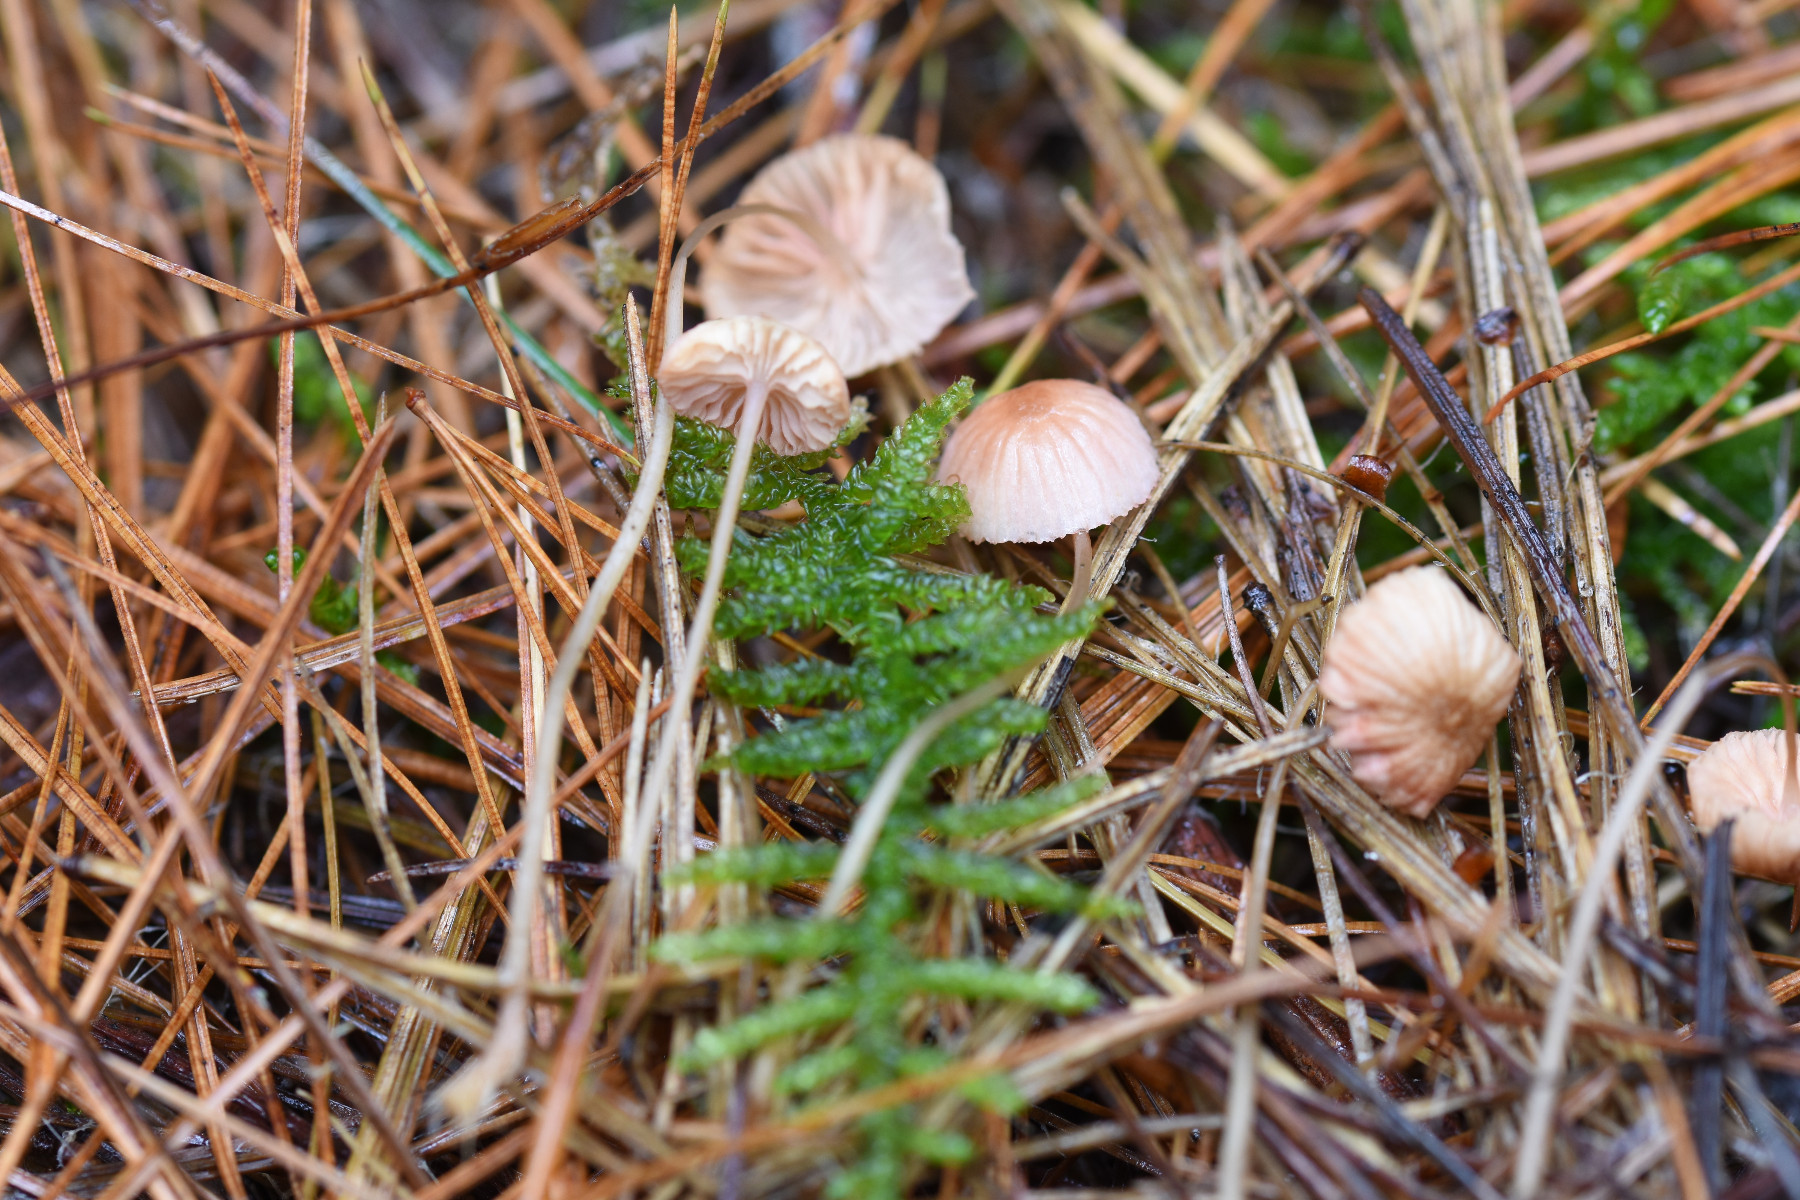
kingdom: Fungi
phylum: Basidiomycota
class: Agaricomycetes
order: Agaricales
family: Mycenaceae
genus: Mycena
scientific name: Mycena sanguinolenta
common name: rødmælket huesvamp
